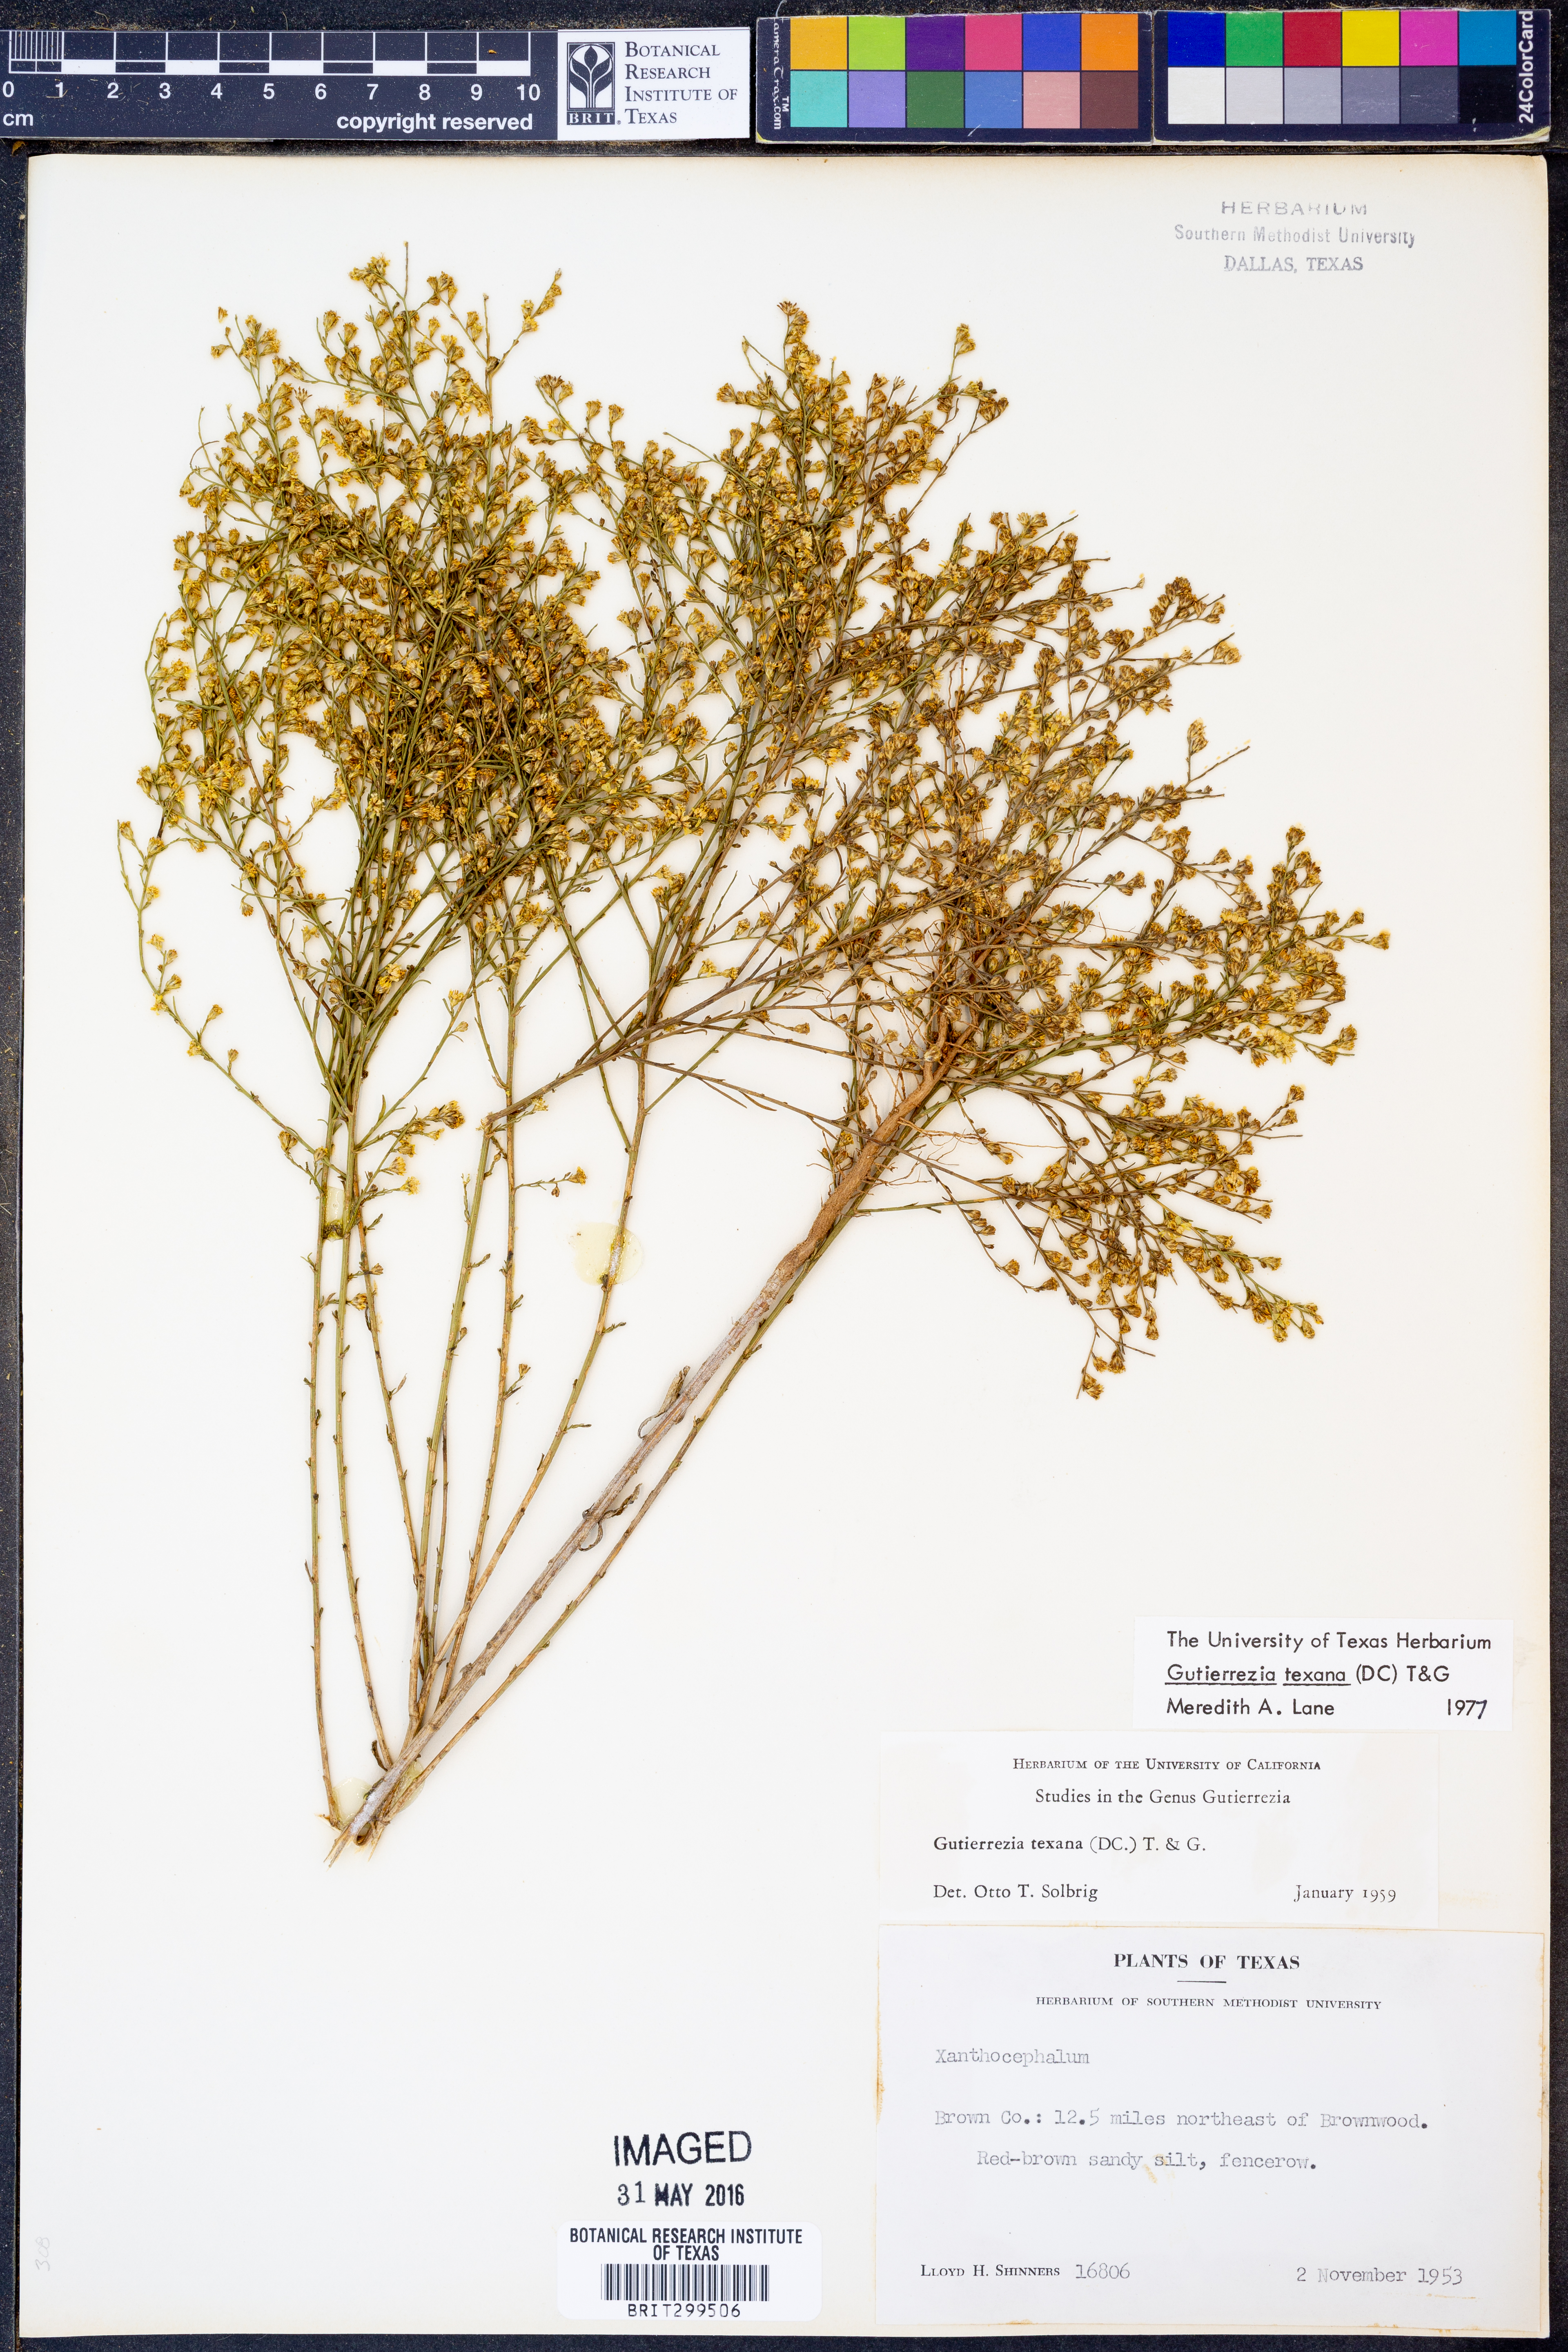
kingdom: Plantae
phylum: Tracheophyta
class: Magnoliopsida
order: Asterales
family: Asteraceae
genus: Gutierrezia
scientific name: Gutierrezia texana
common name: Texas snakeweed
